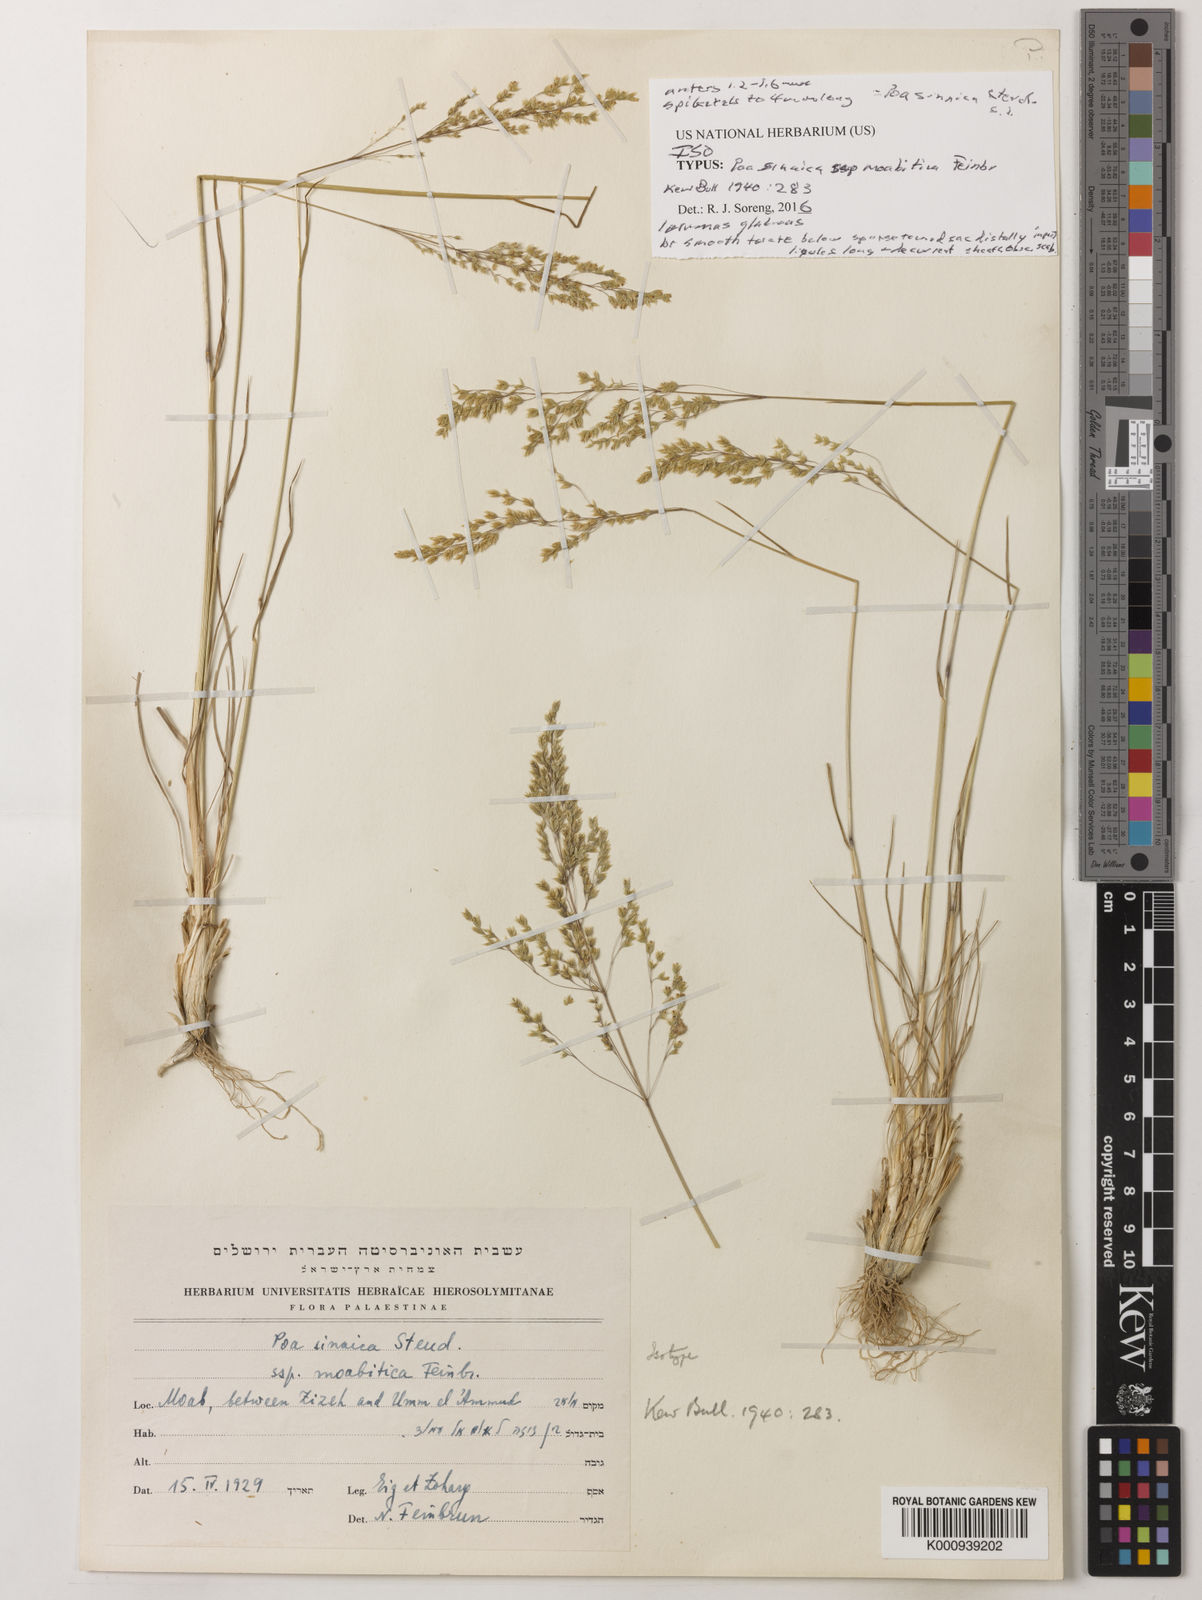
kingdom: Plantae
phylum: Tracheophyta
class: Liliopsida
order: Poales
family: Poaceae
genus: Poa
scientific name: Poa sinaica
